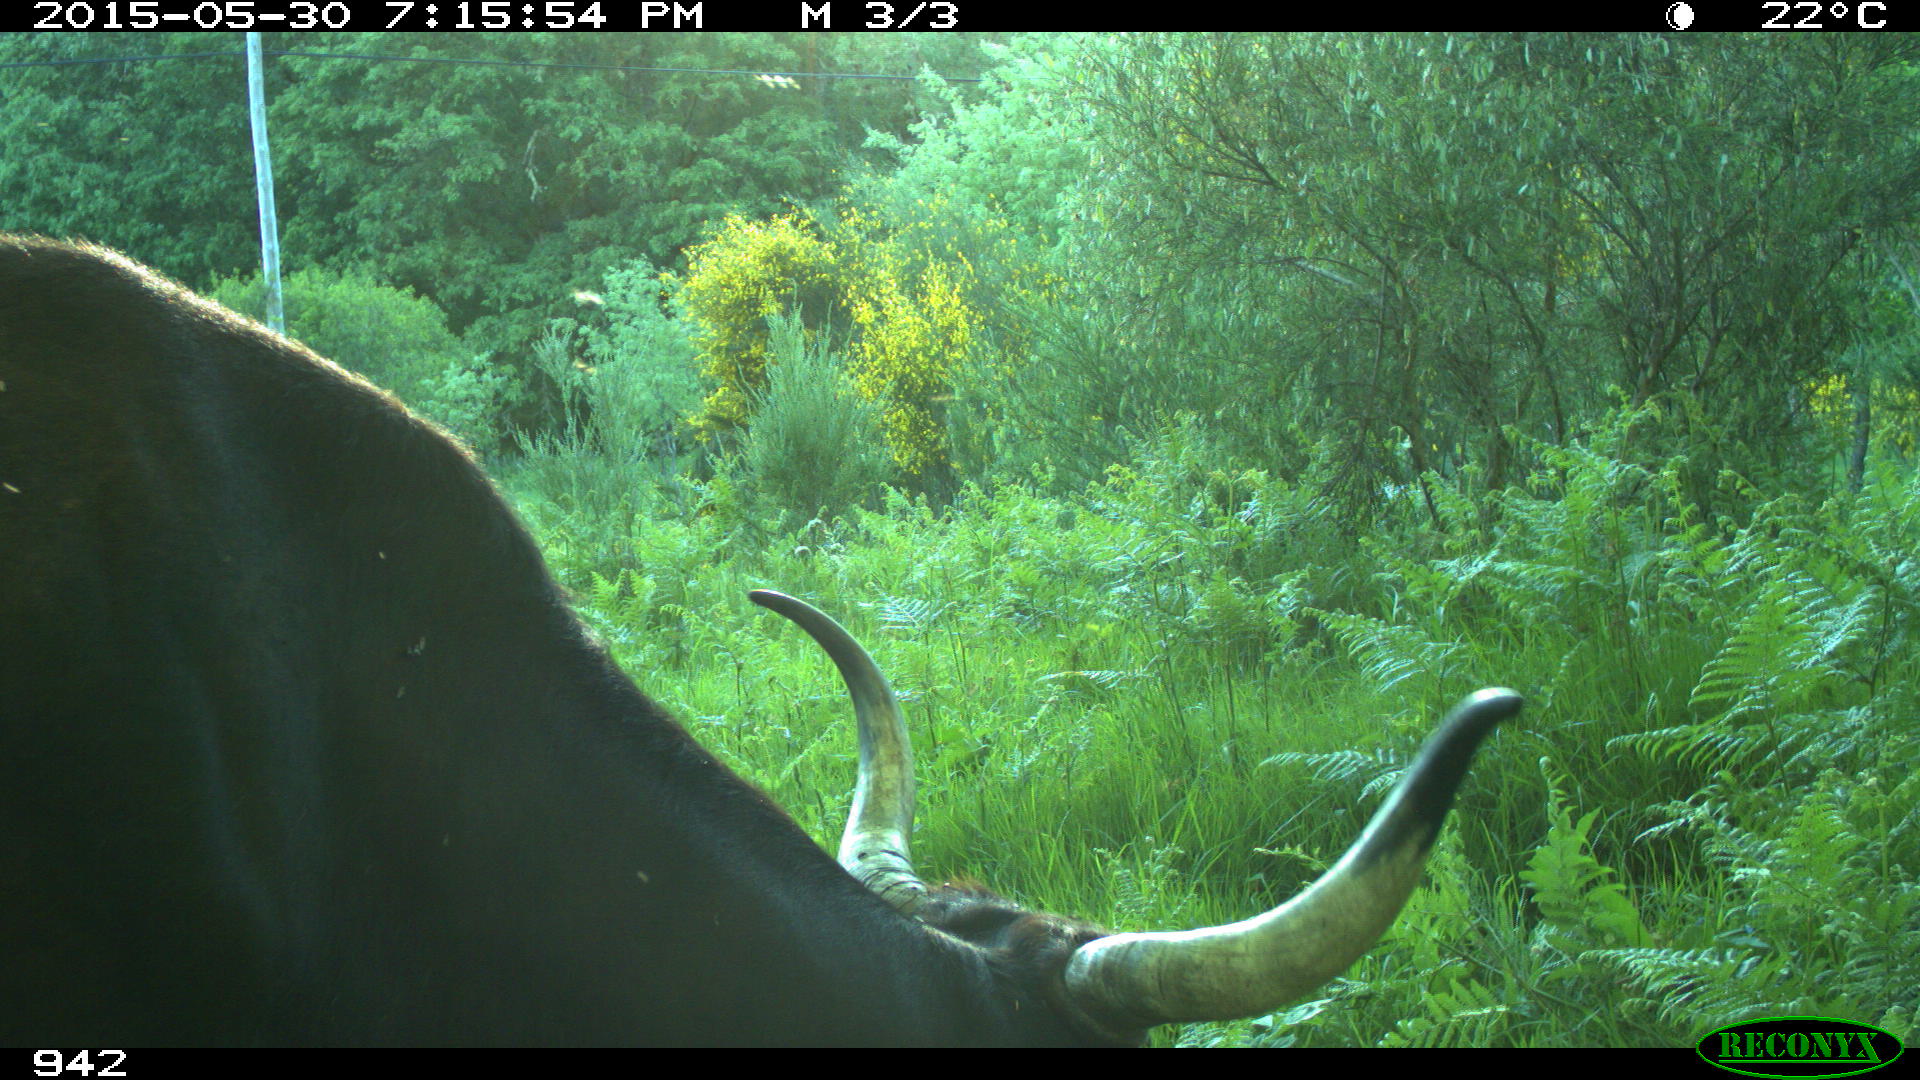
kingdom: Animalia
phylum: Chordata
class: Mammalia
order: Artiodactyla
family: Bovidae
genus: Bos
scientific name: Bos taurus
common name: Domesticated cattle
